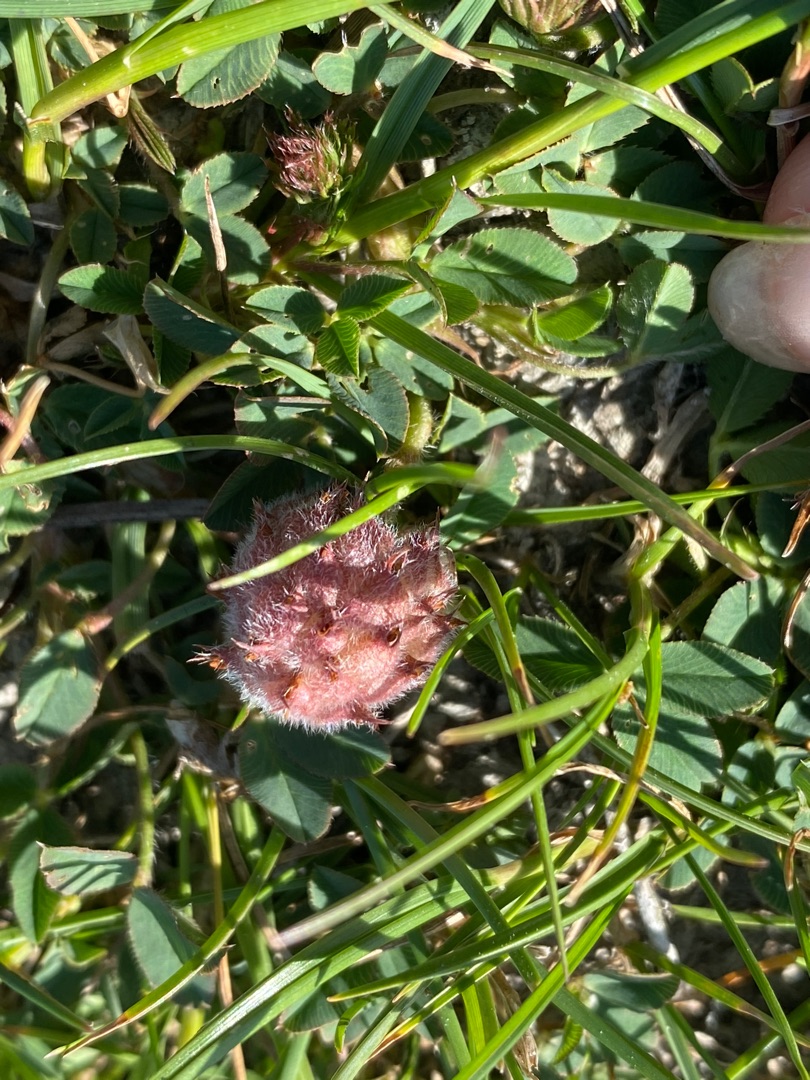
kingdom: Plantae
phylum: Tracheophyta
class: Magnoliopsida
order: Fabales
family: Fabaceae
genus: Trifolium
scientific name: Trifolium fragiferum
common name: Jordbær-kløver
